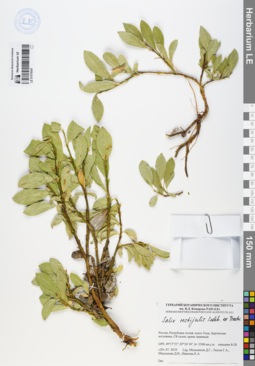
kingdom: Plantae
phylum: Tracheophyta
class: Magnoliopsida
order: Malpighiales
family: Salicaceae
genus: Salix
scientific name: Salix rectijulis
